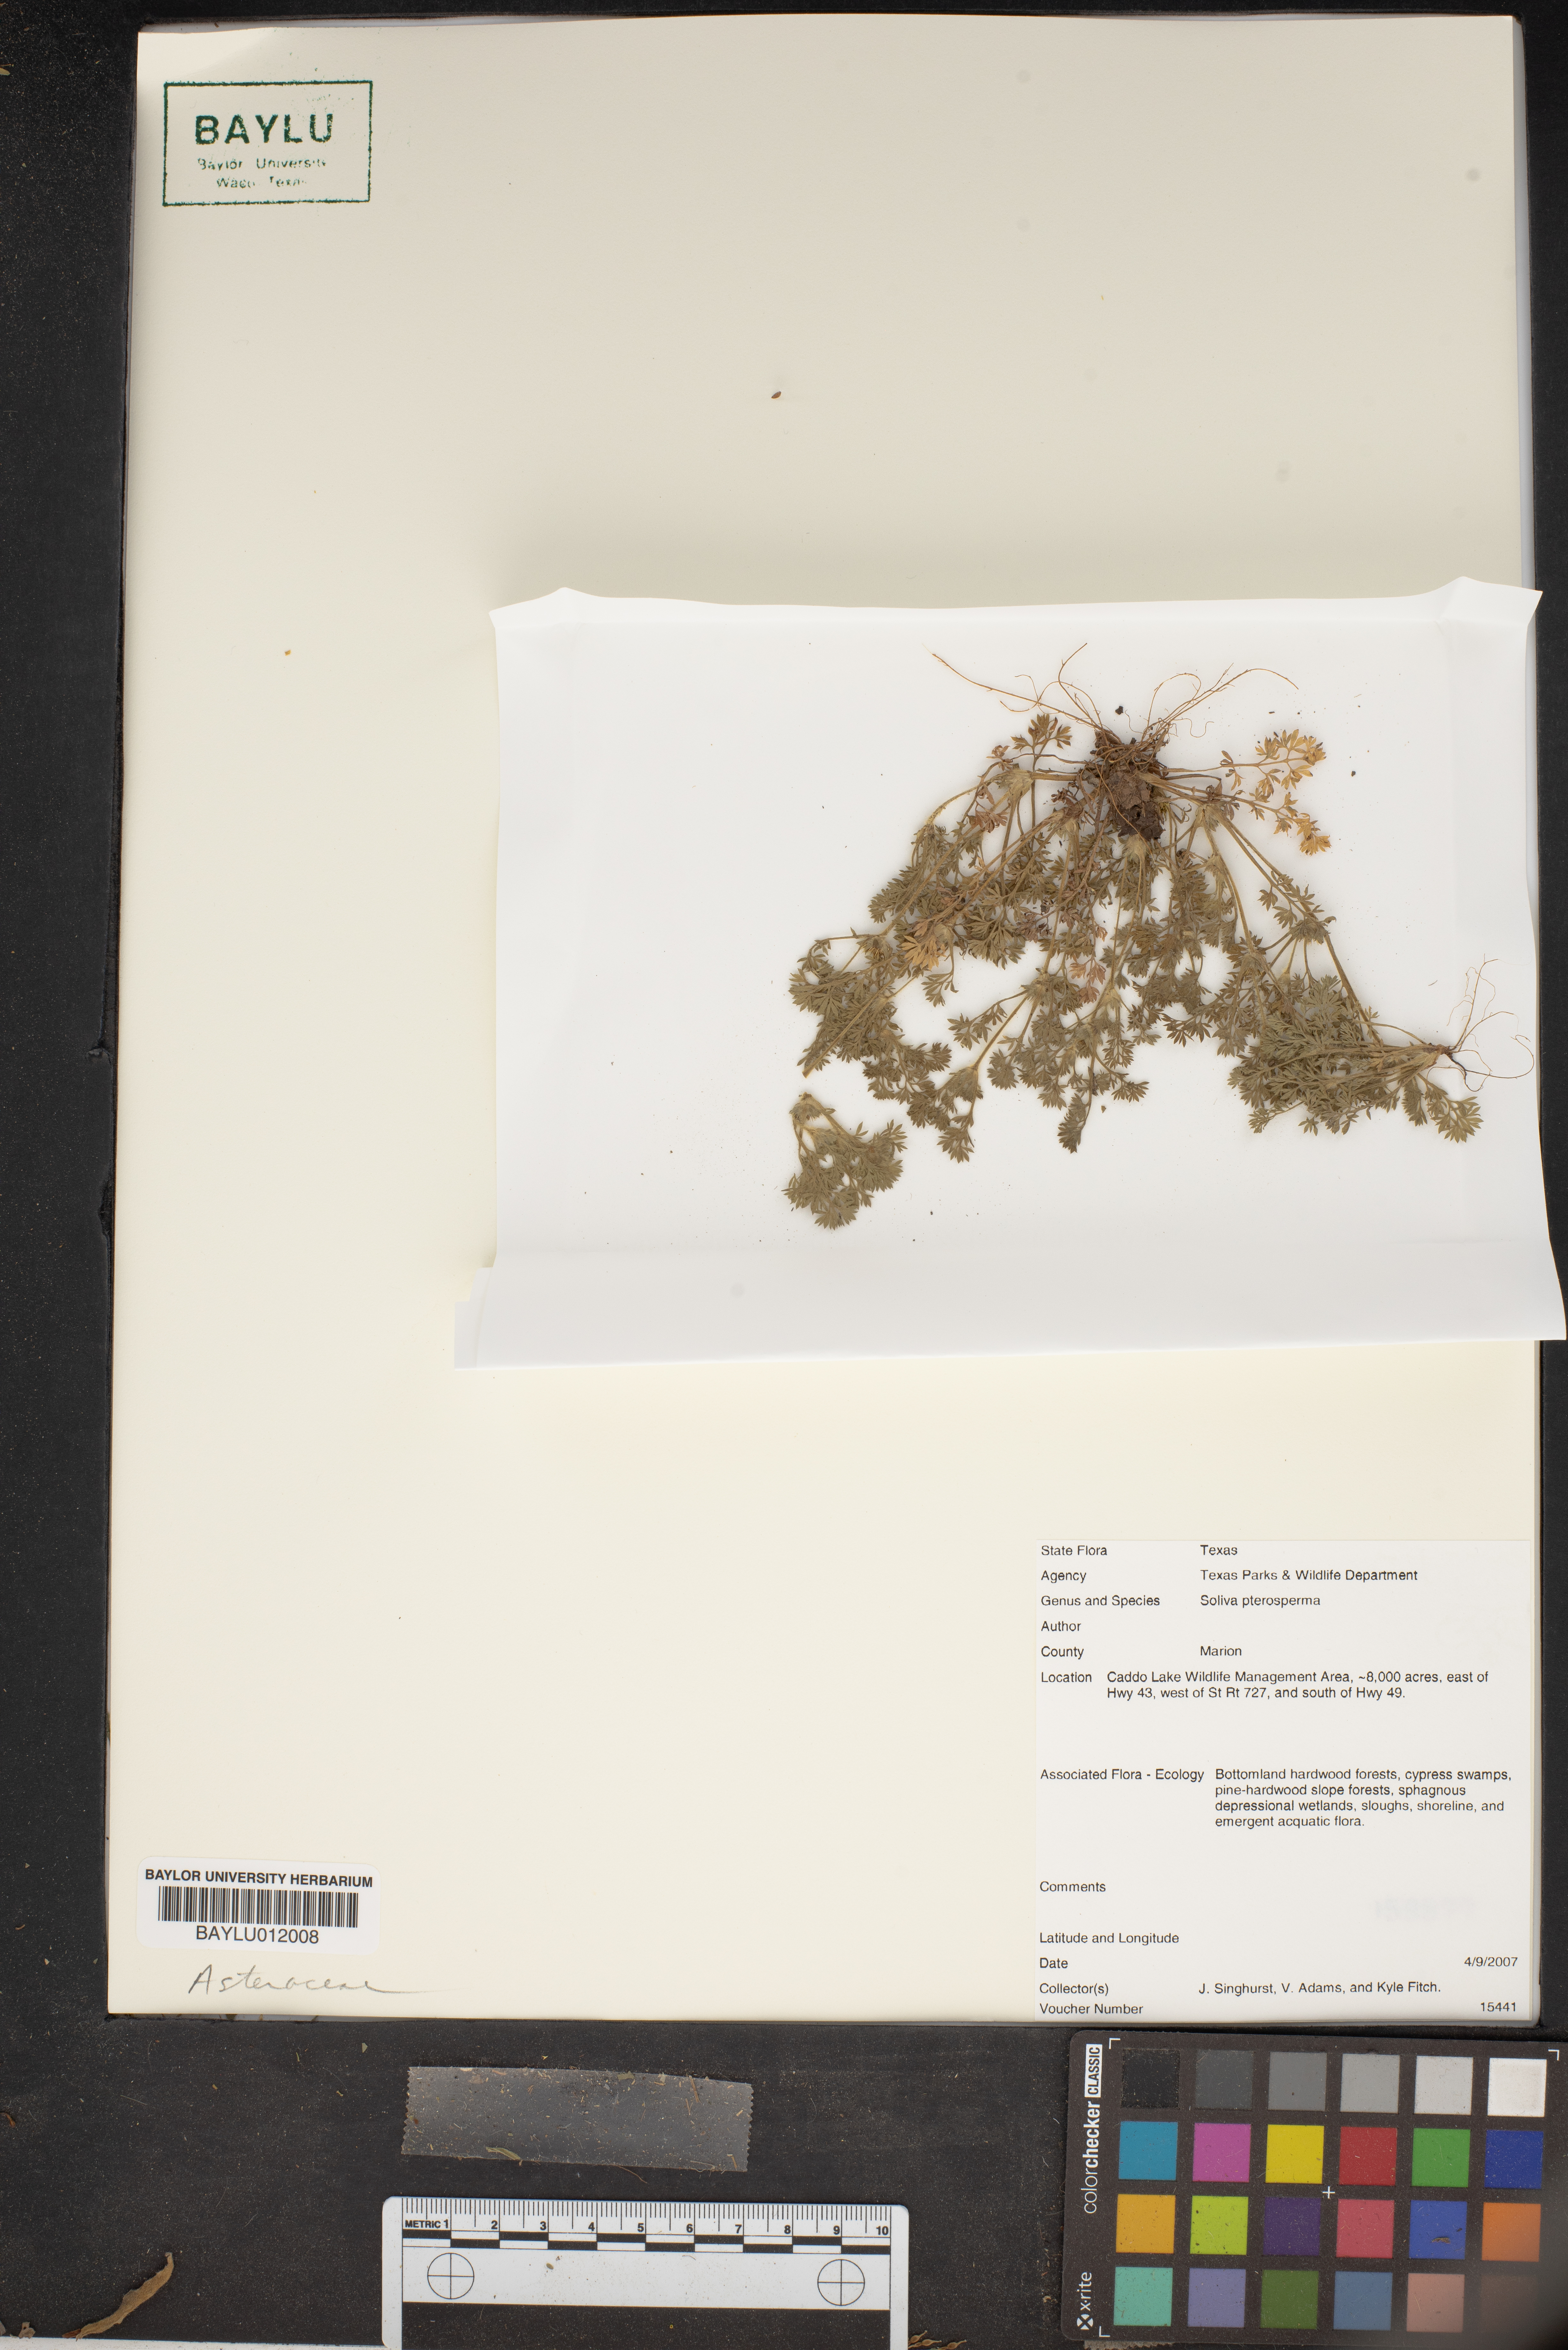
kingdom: Plantae
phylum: Tracheophyta
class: Magnoliopsida
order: Asterales
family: Asteraceae
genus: Soliva
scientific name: Soliva sessilis
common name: Field burrweed
